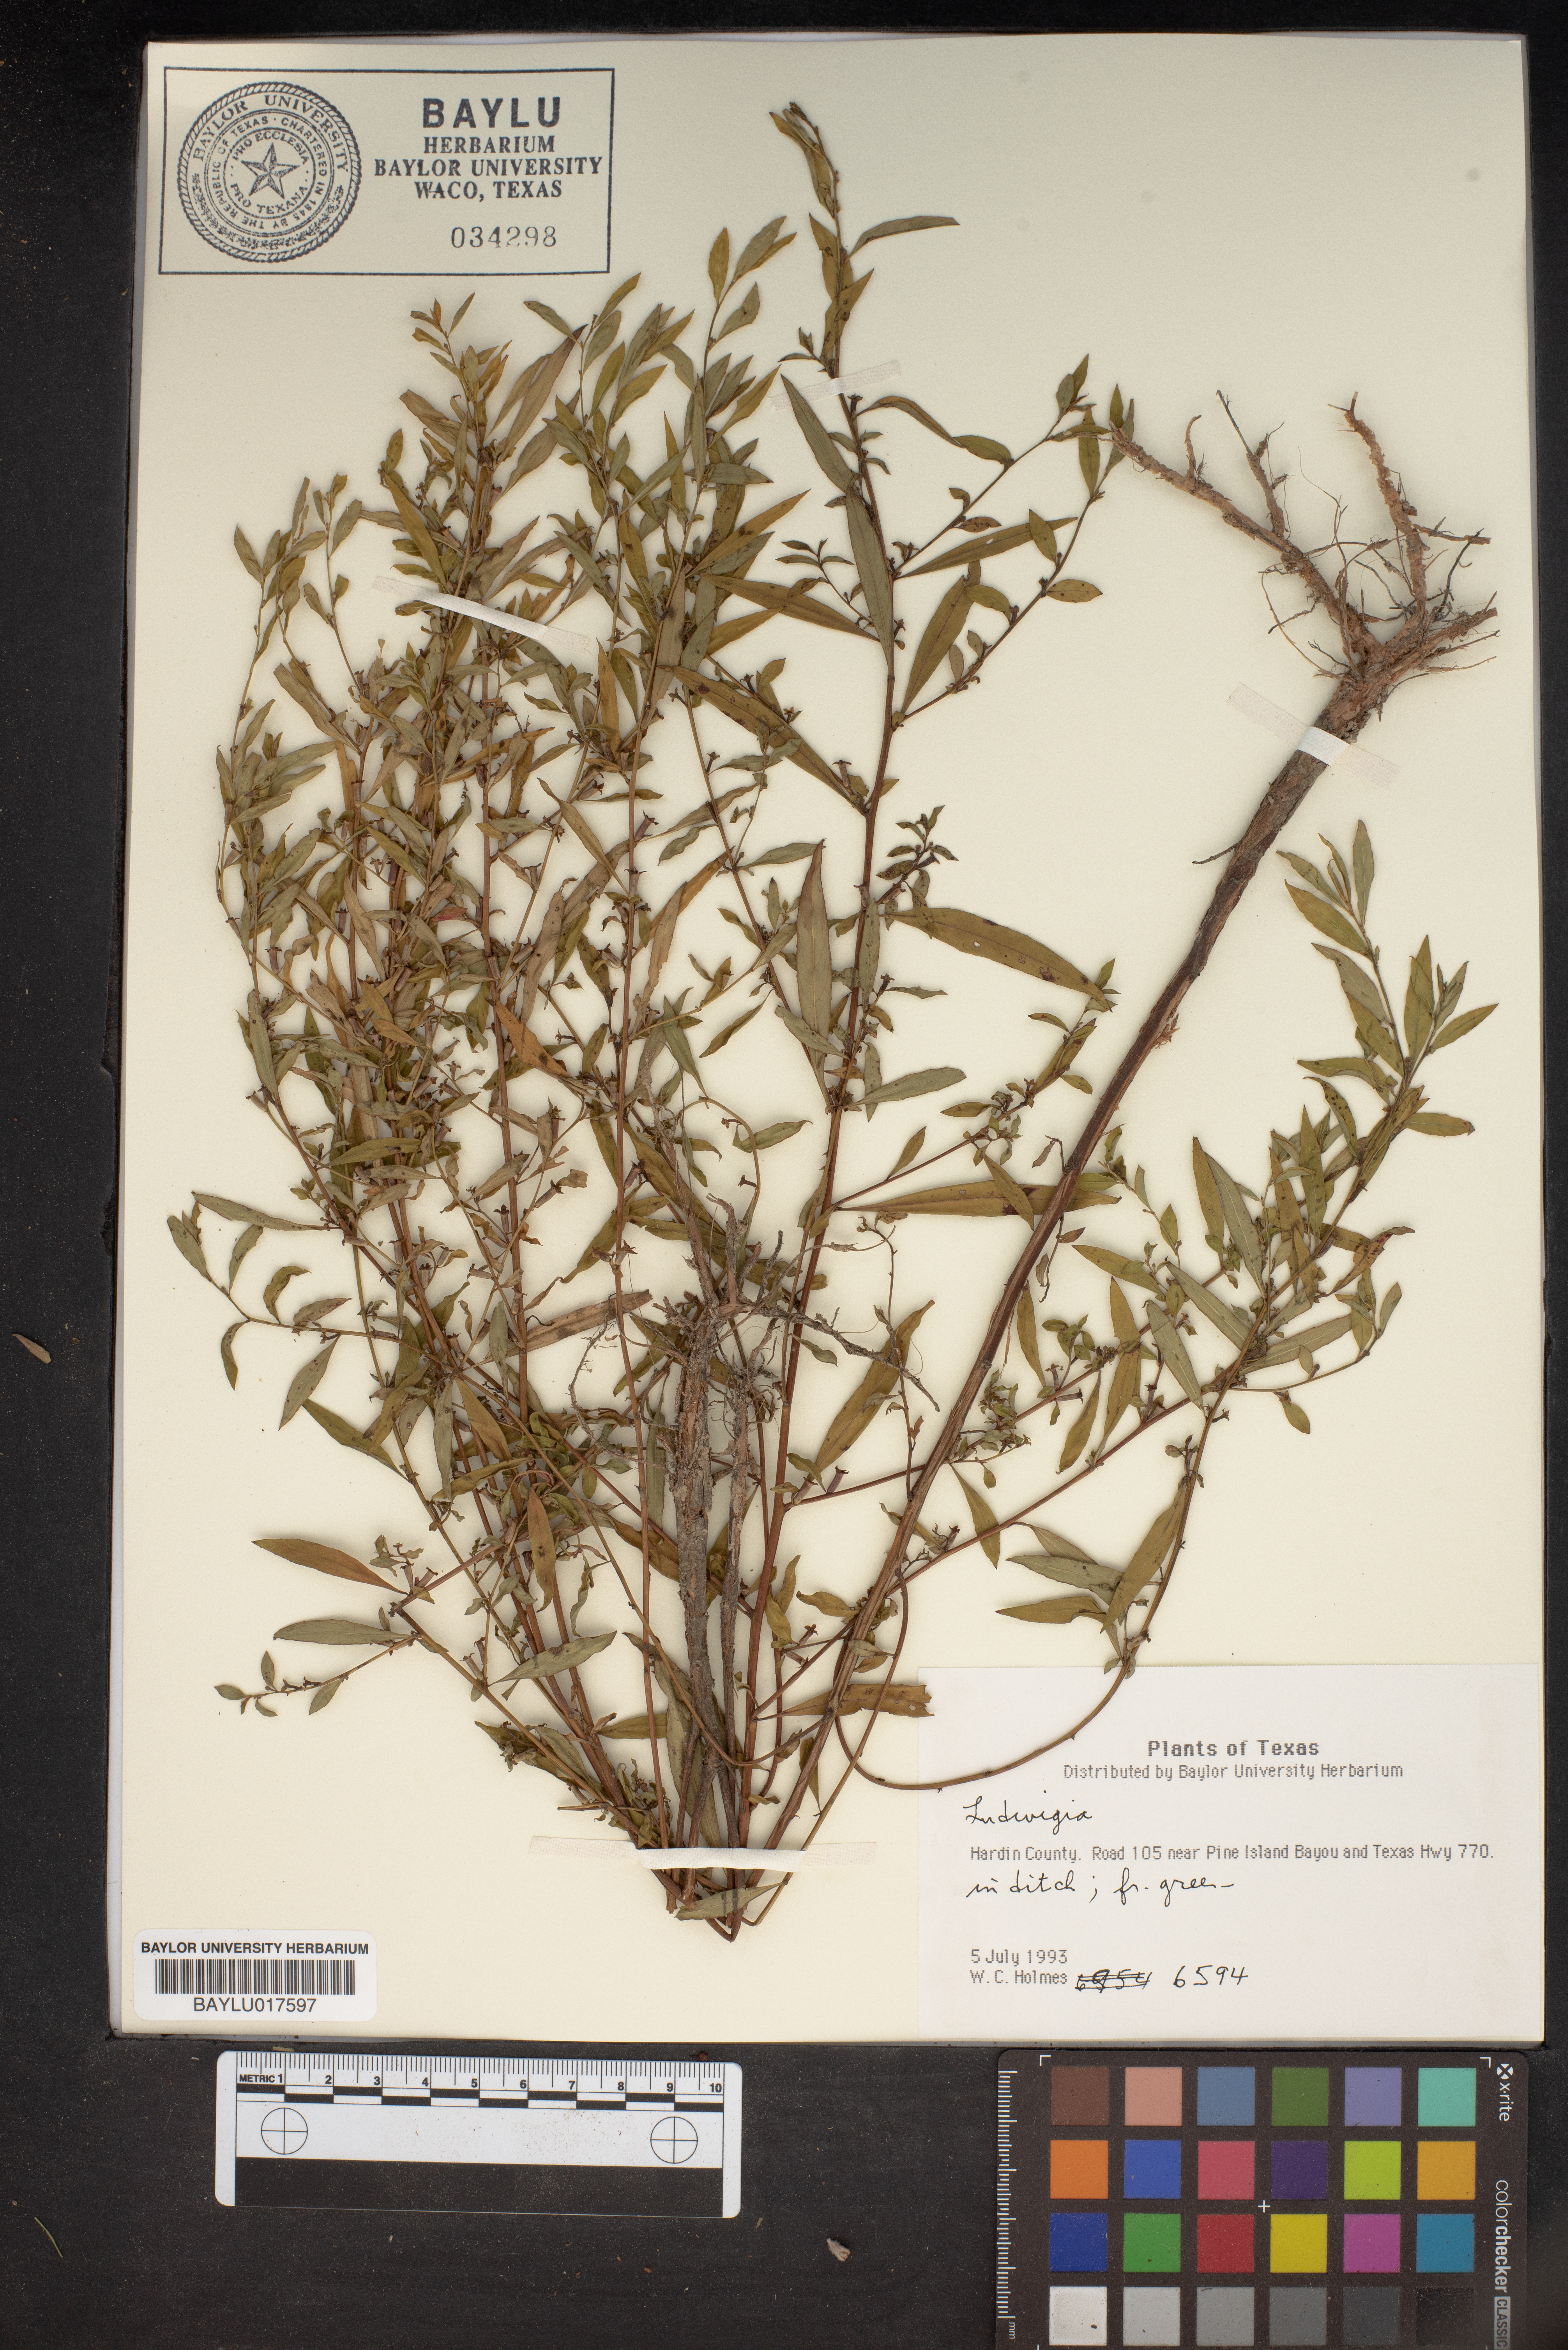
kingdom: Plantae
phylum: Tracheophyta
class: Magnoliopsida
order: Myrtales
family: Onagraceae
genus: Ludwigia
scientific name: Ludwigia
